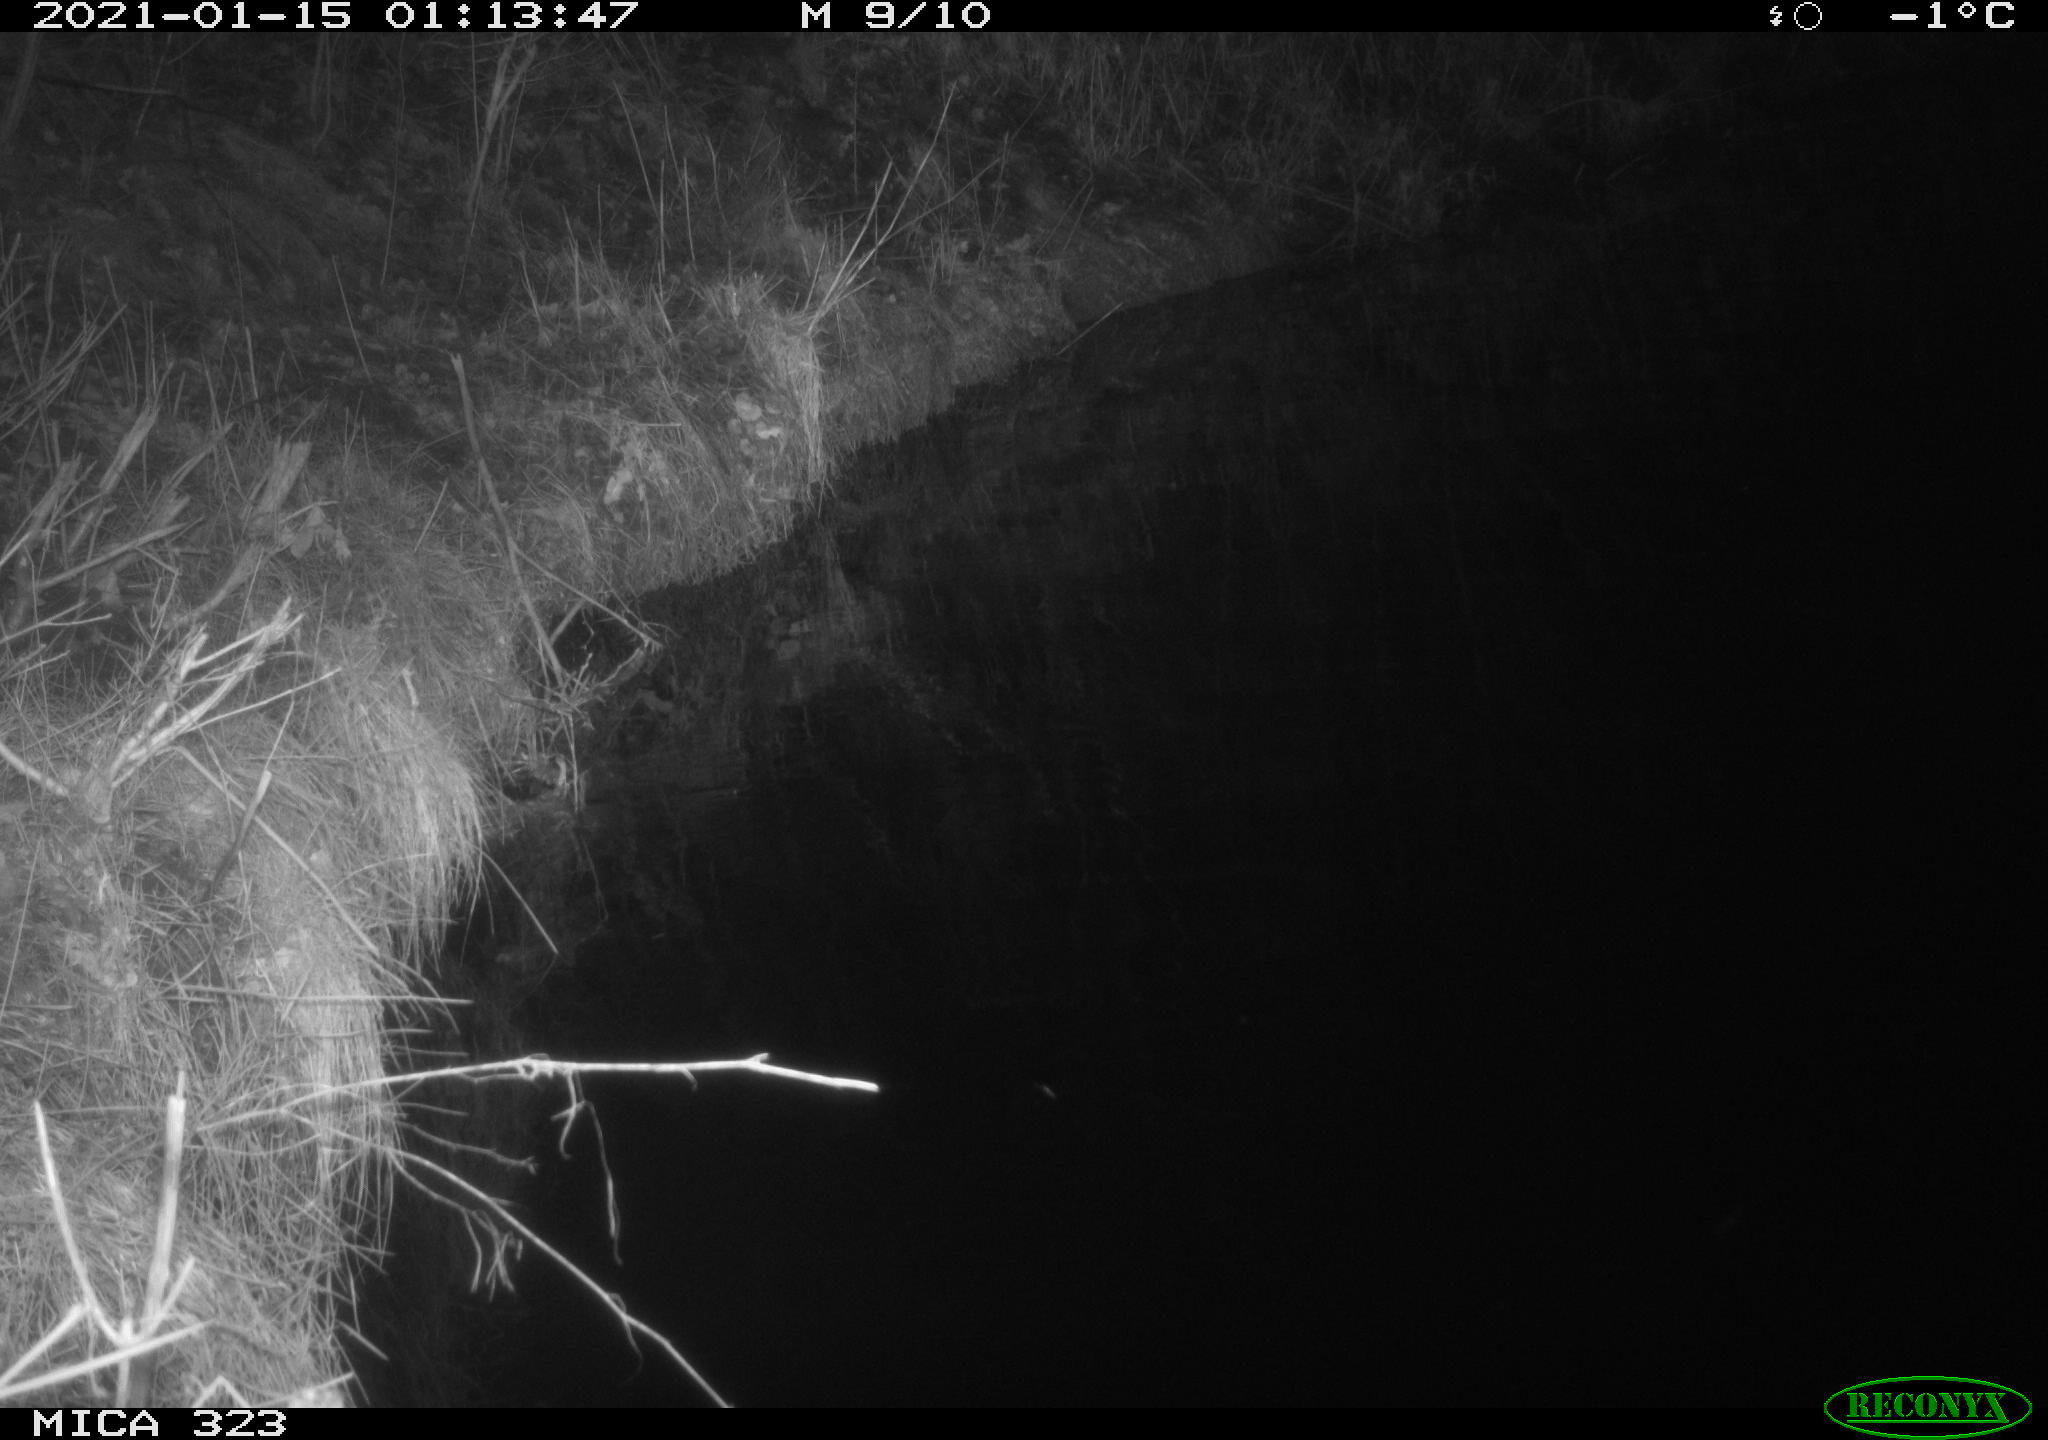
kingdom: Animalia
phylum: Chordata
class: Aves
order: Anseriformes
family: Anatidae
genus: Anas
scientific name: Anas platyrhynchos
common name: Mallard
